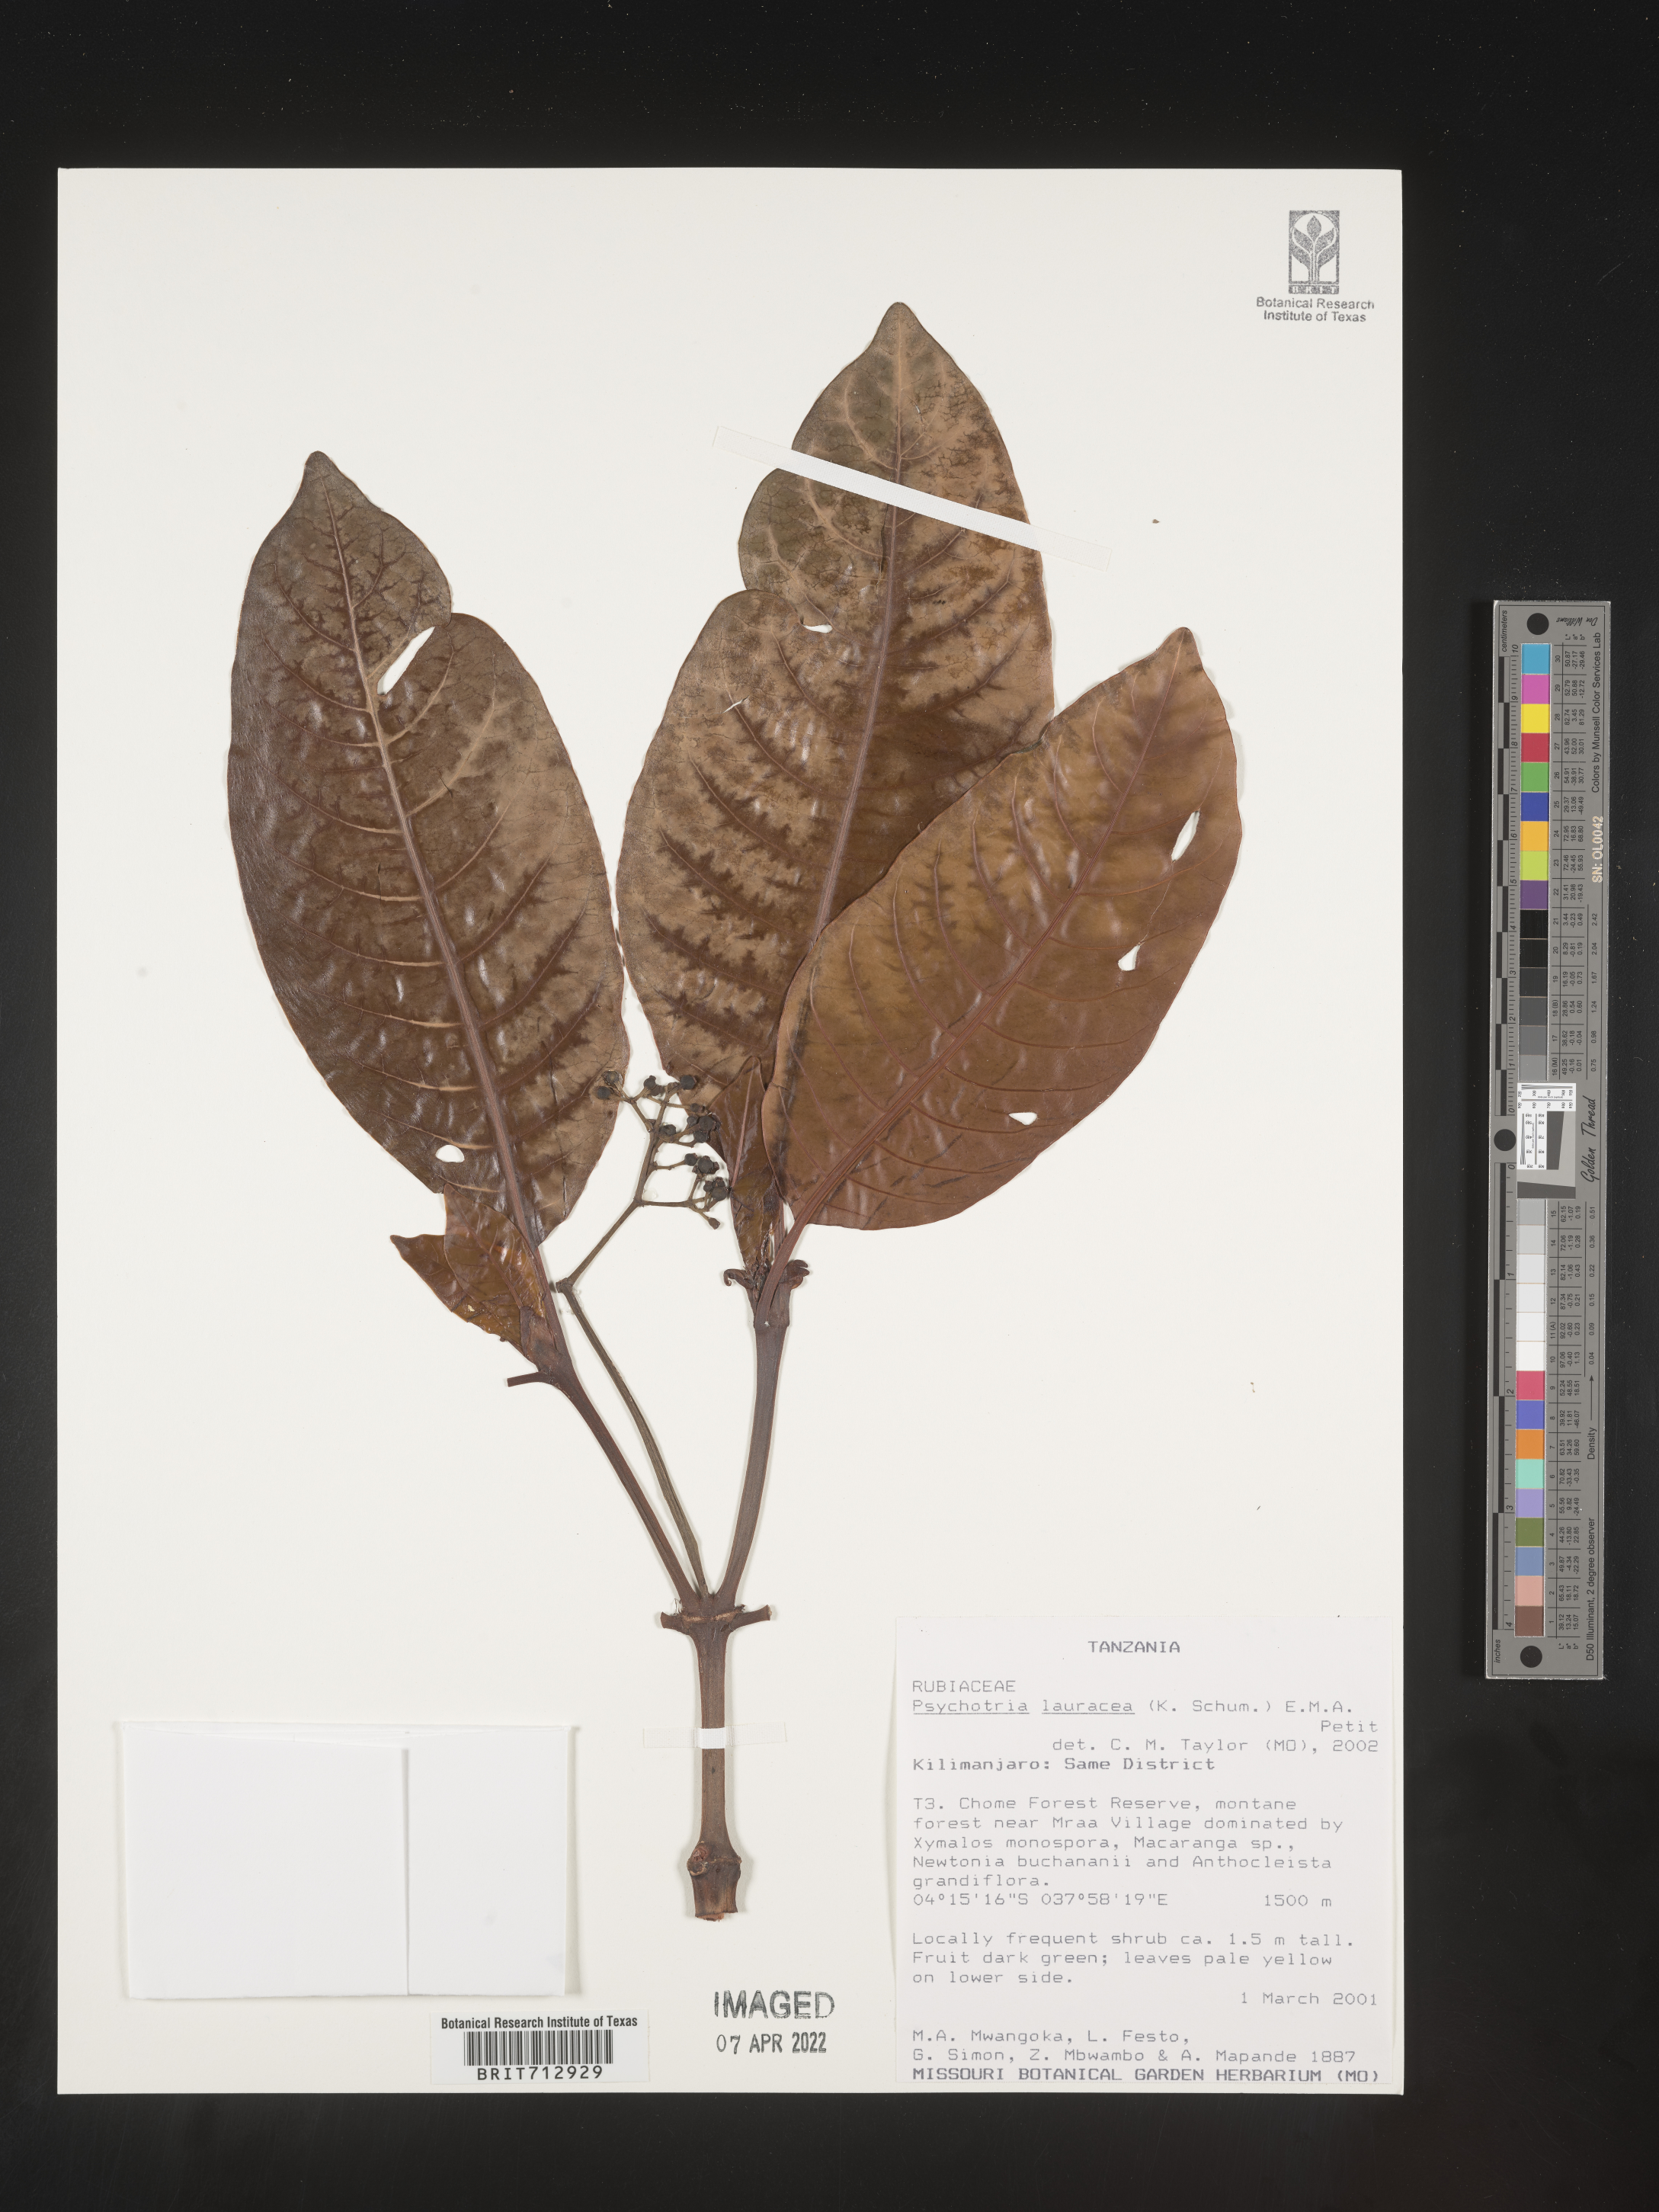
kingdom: Plantae
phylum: Tracheophyta
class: Magnoliopsida
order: Gentianales
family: Rubiaceae
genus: Psychotria
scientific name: Psychotria lauracea
